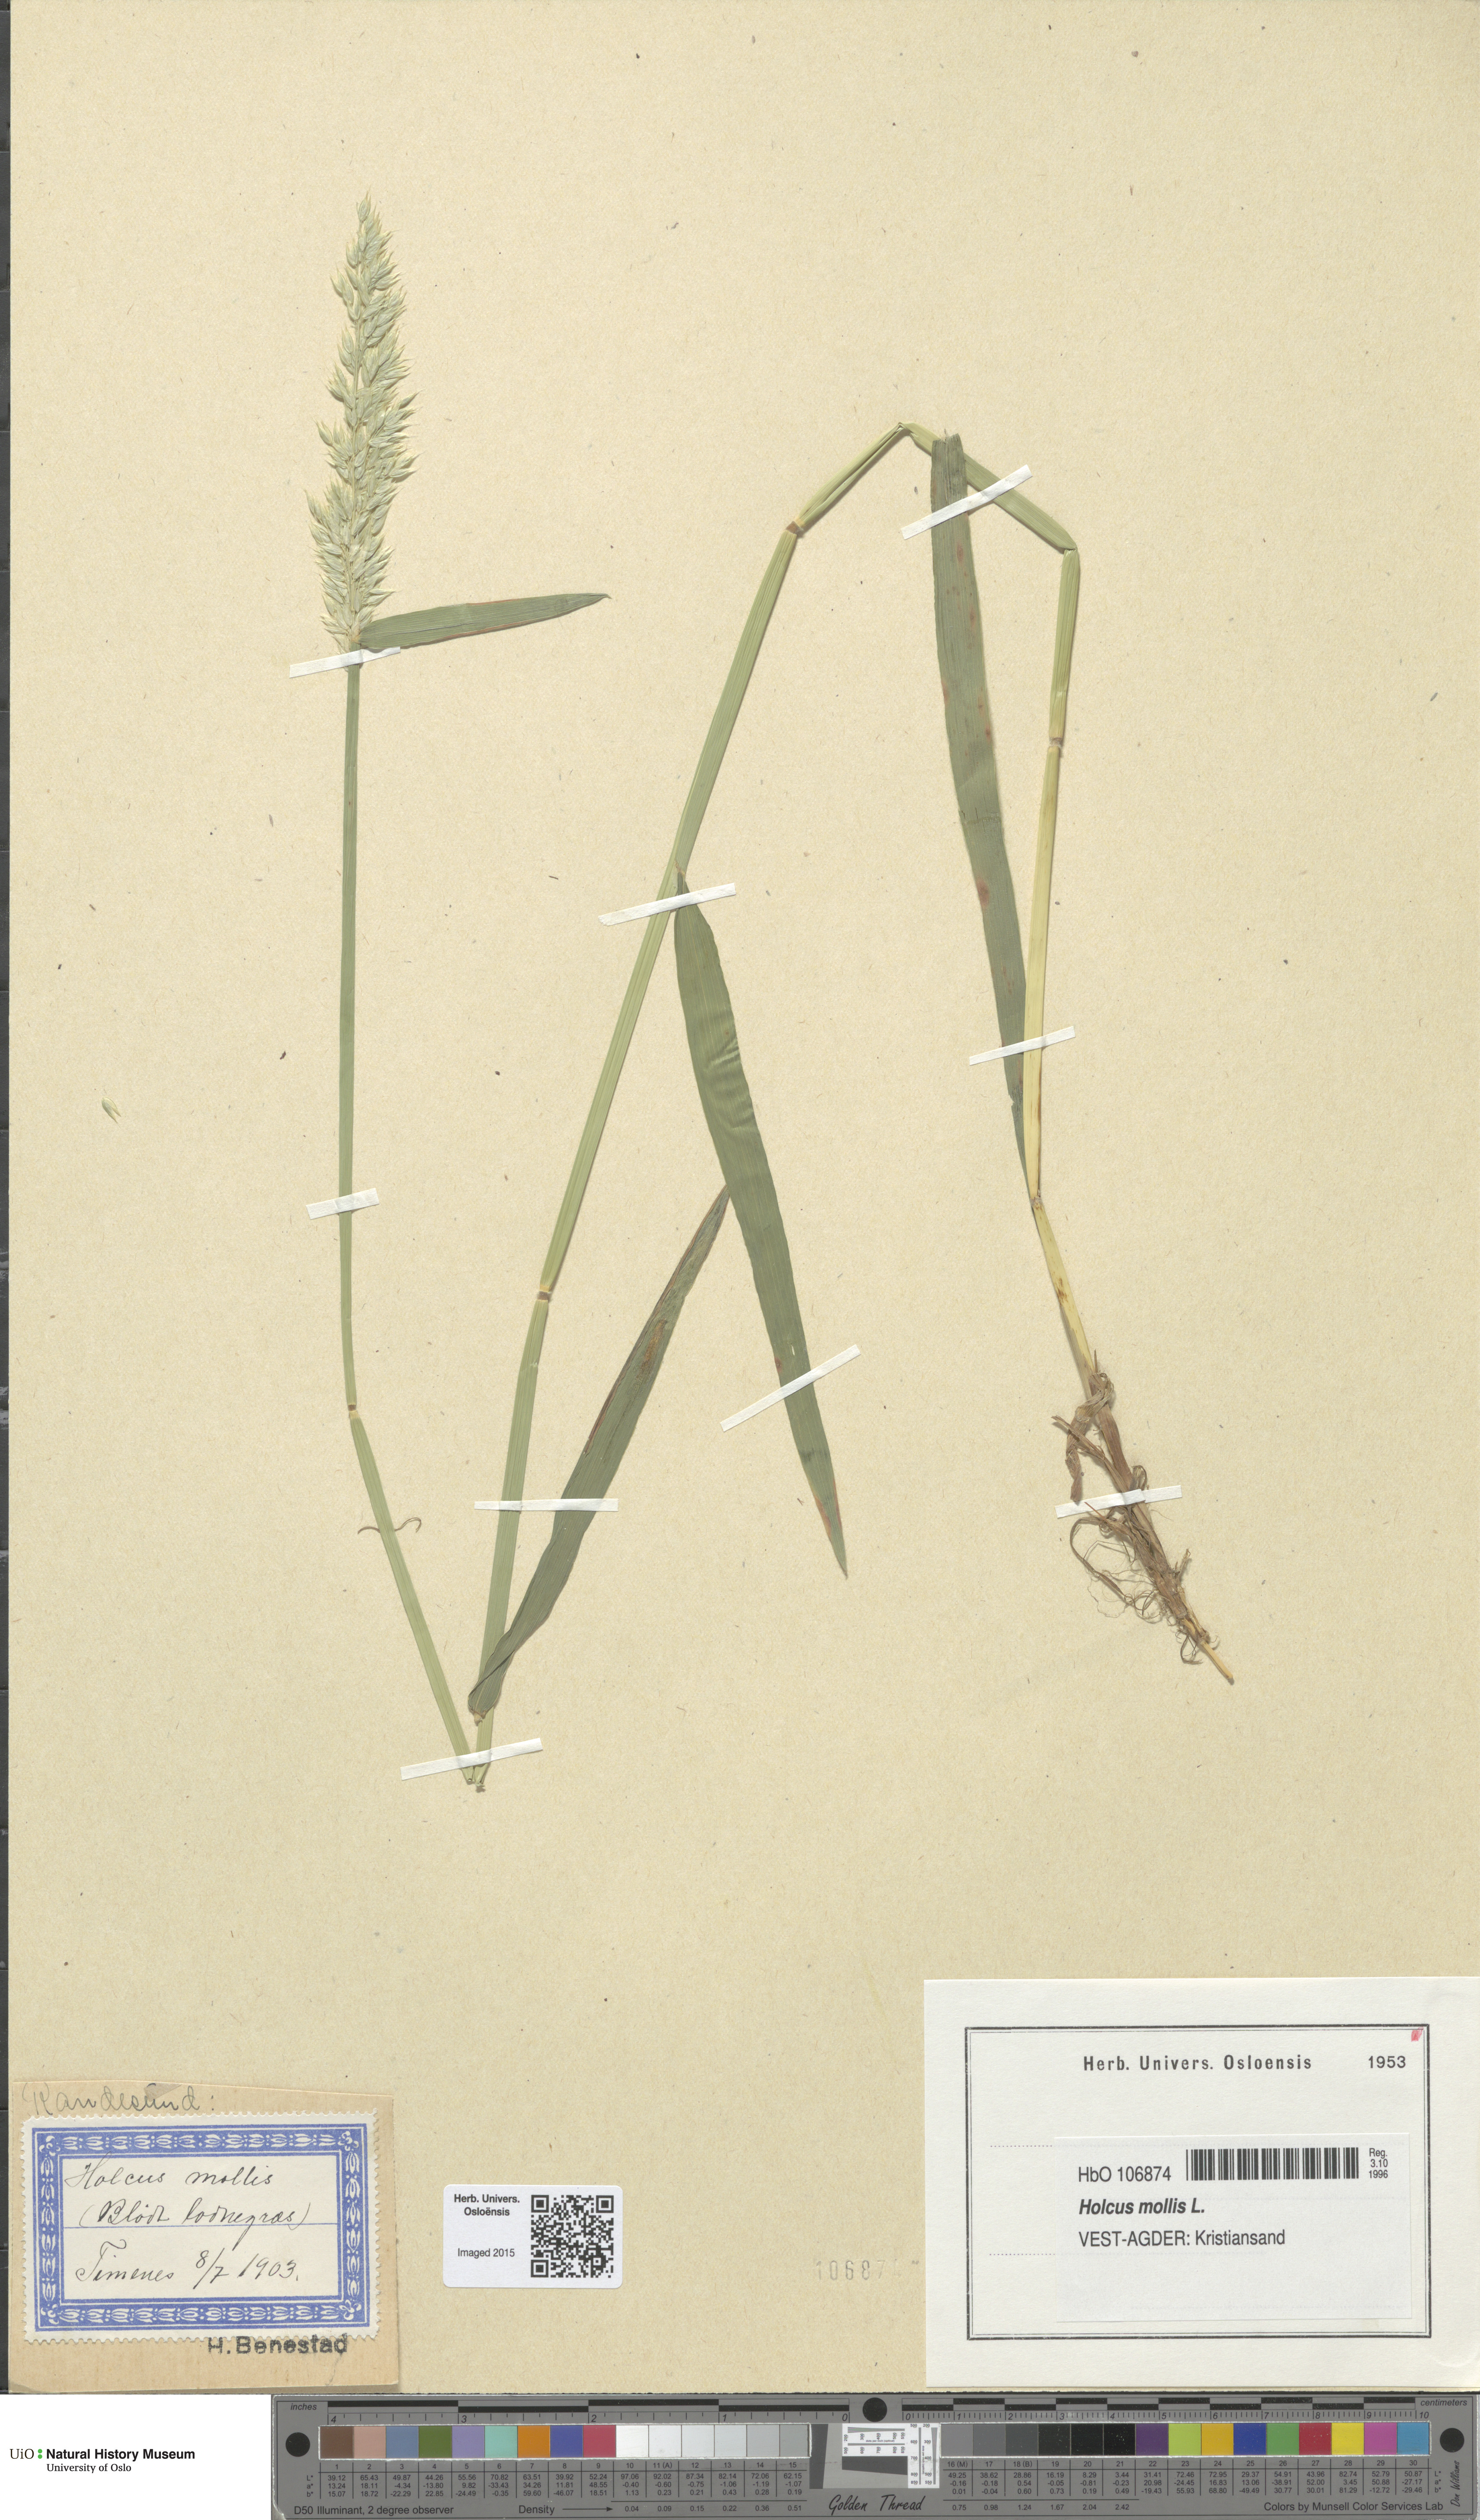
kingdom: Plantae
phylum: Tracheophyta
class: Liliopsida
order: Poales
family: Poaceae
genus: Holcus
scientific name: Holcus mollis
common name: Creeping velvetgrass
